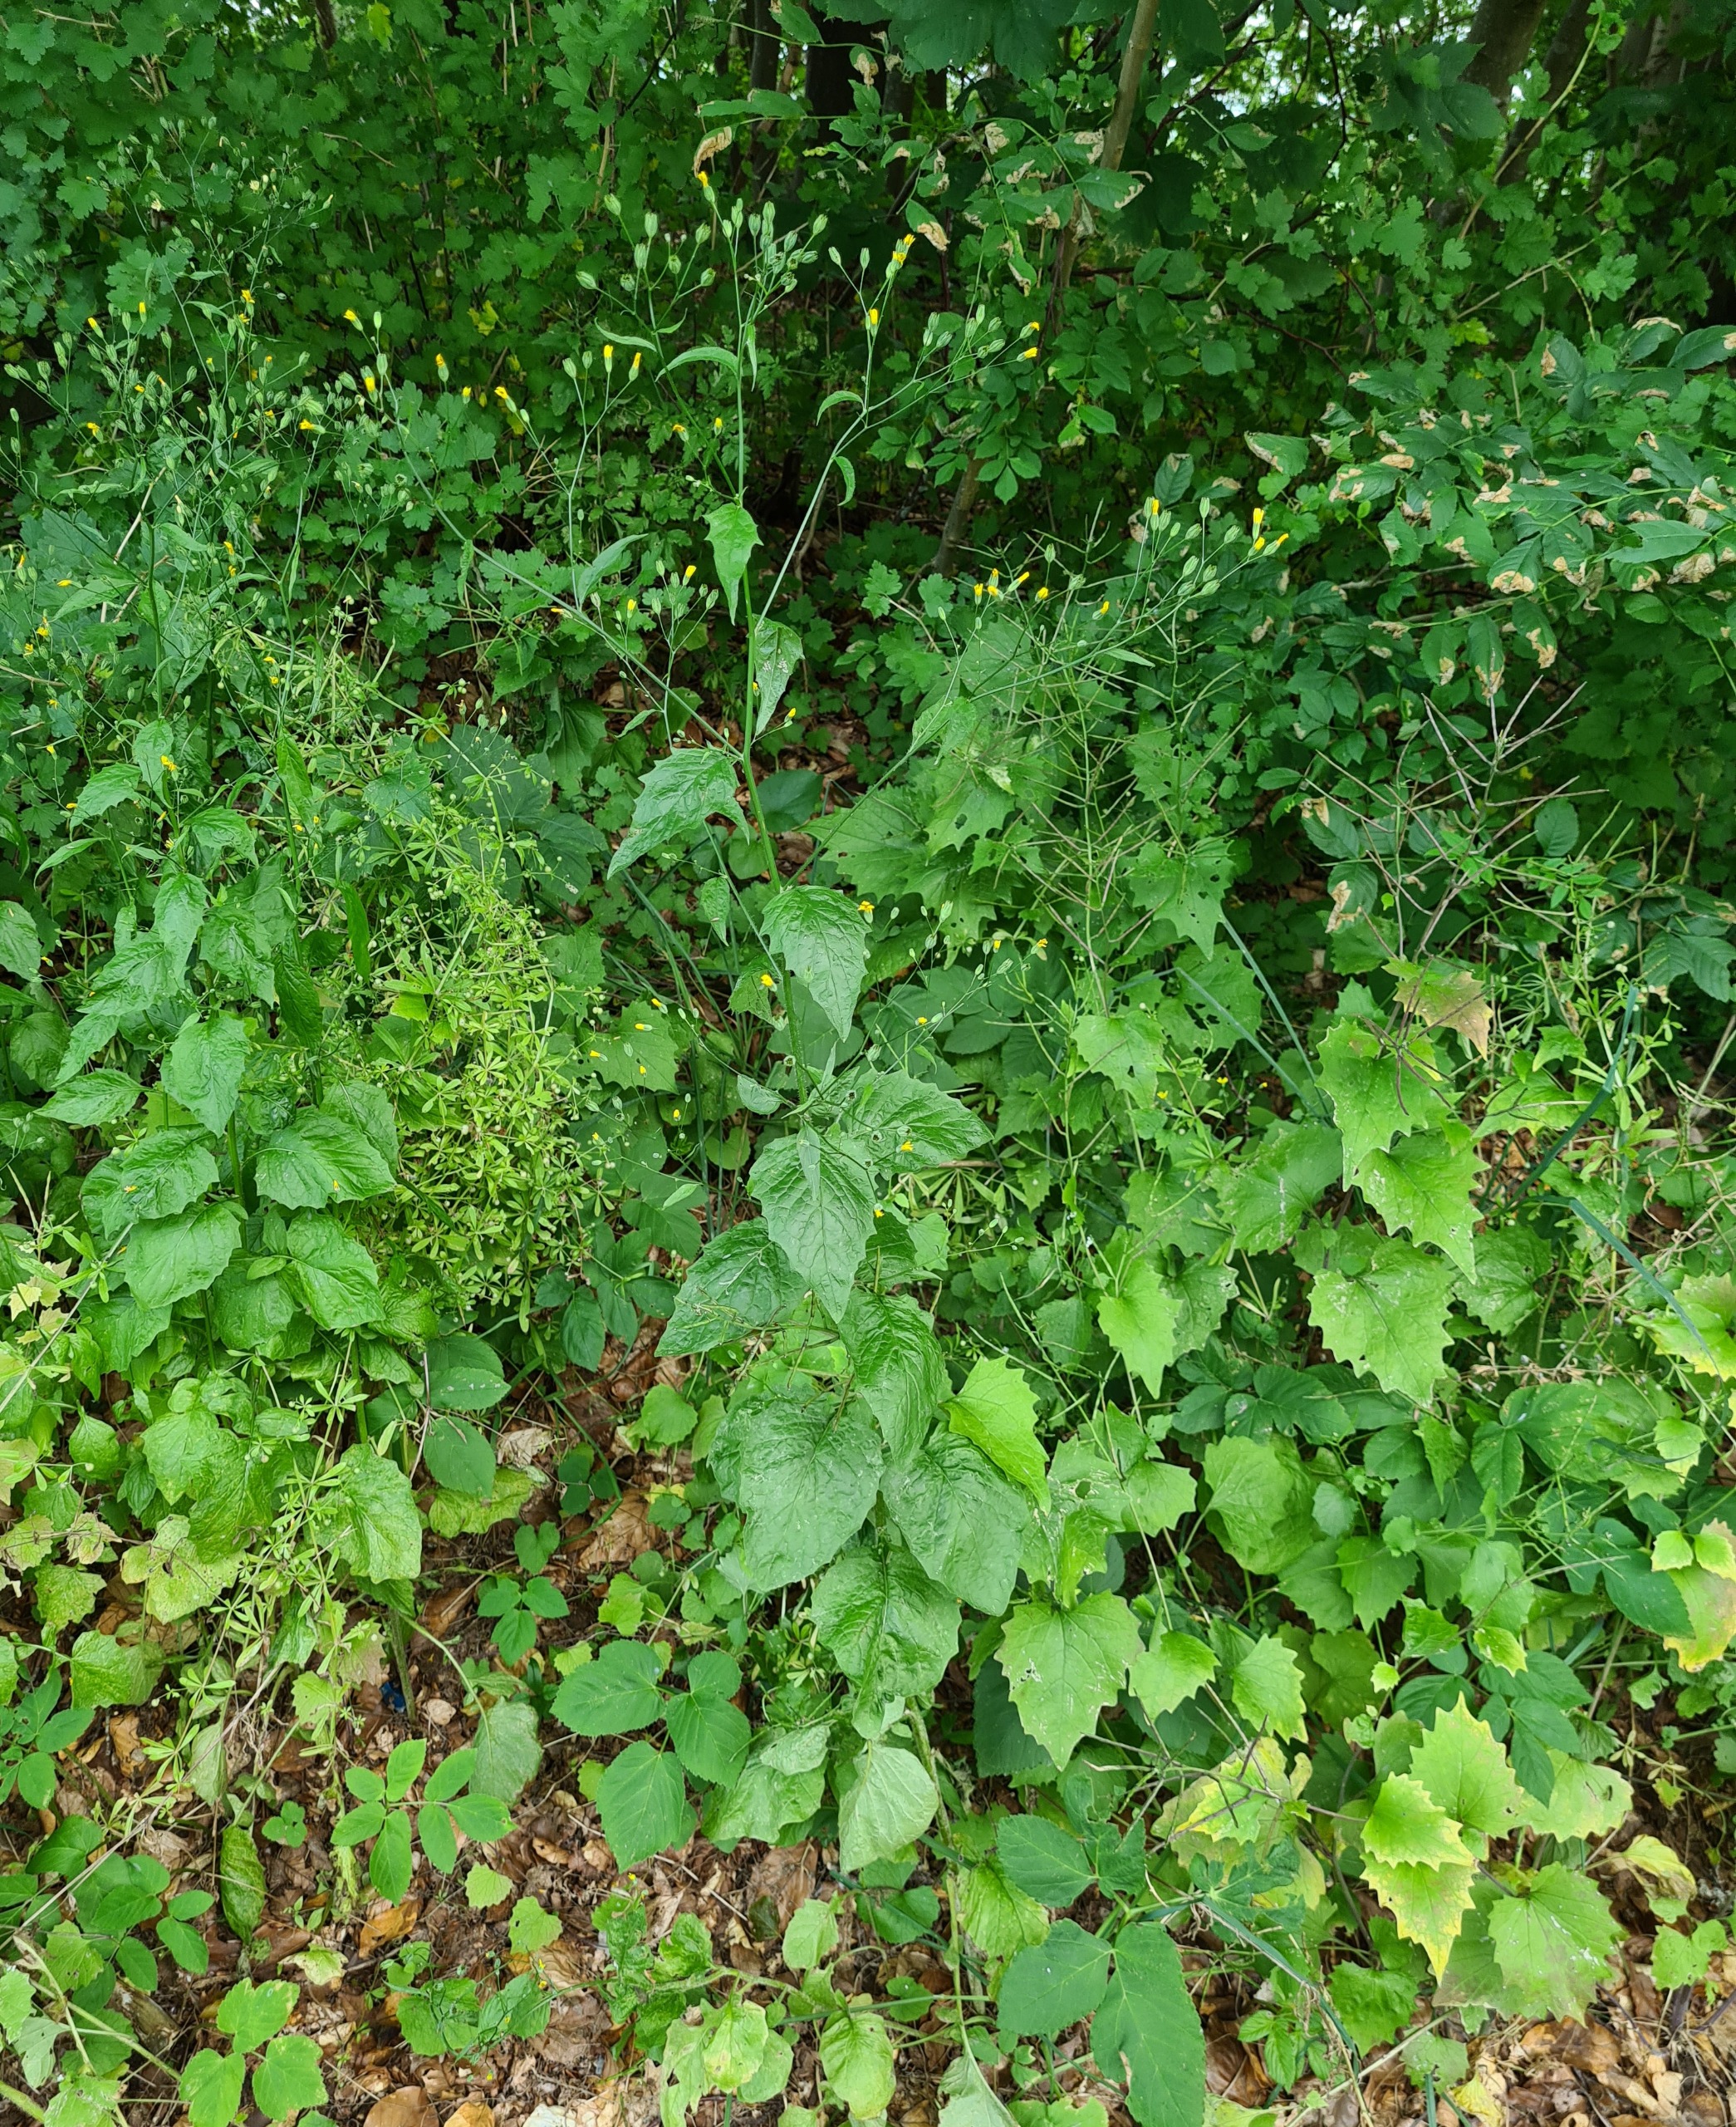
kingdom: Plantae
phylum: Tracheophyta
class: Magnoliopsida
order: Asterales
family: Asteraceae
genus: Lapsana
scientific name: Lapsana communis
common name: Haremad
